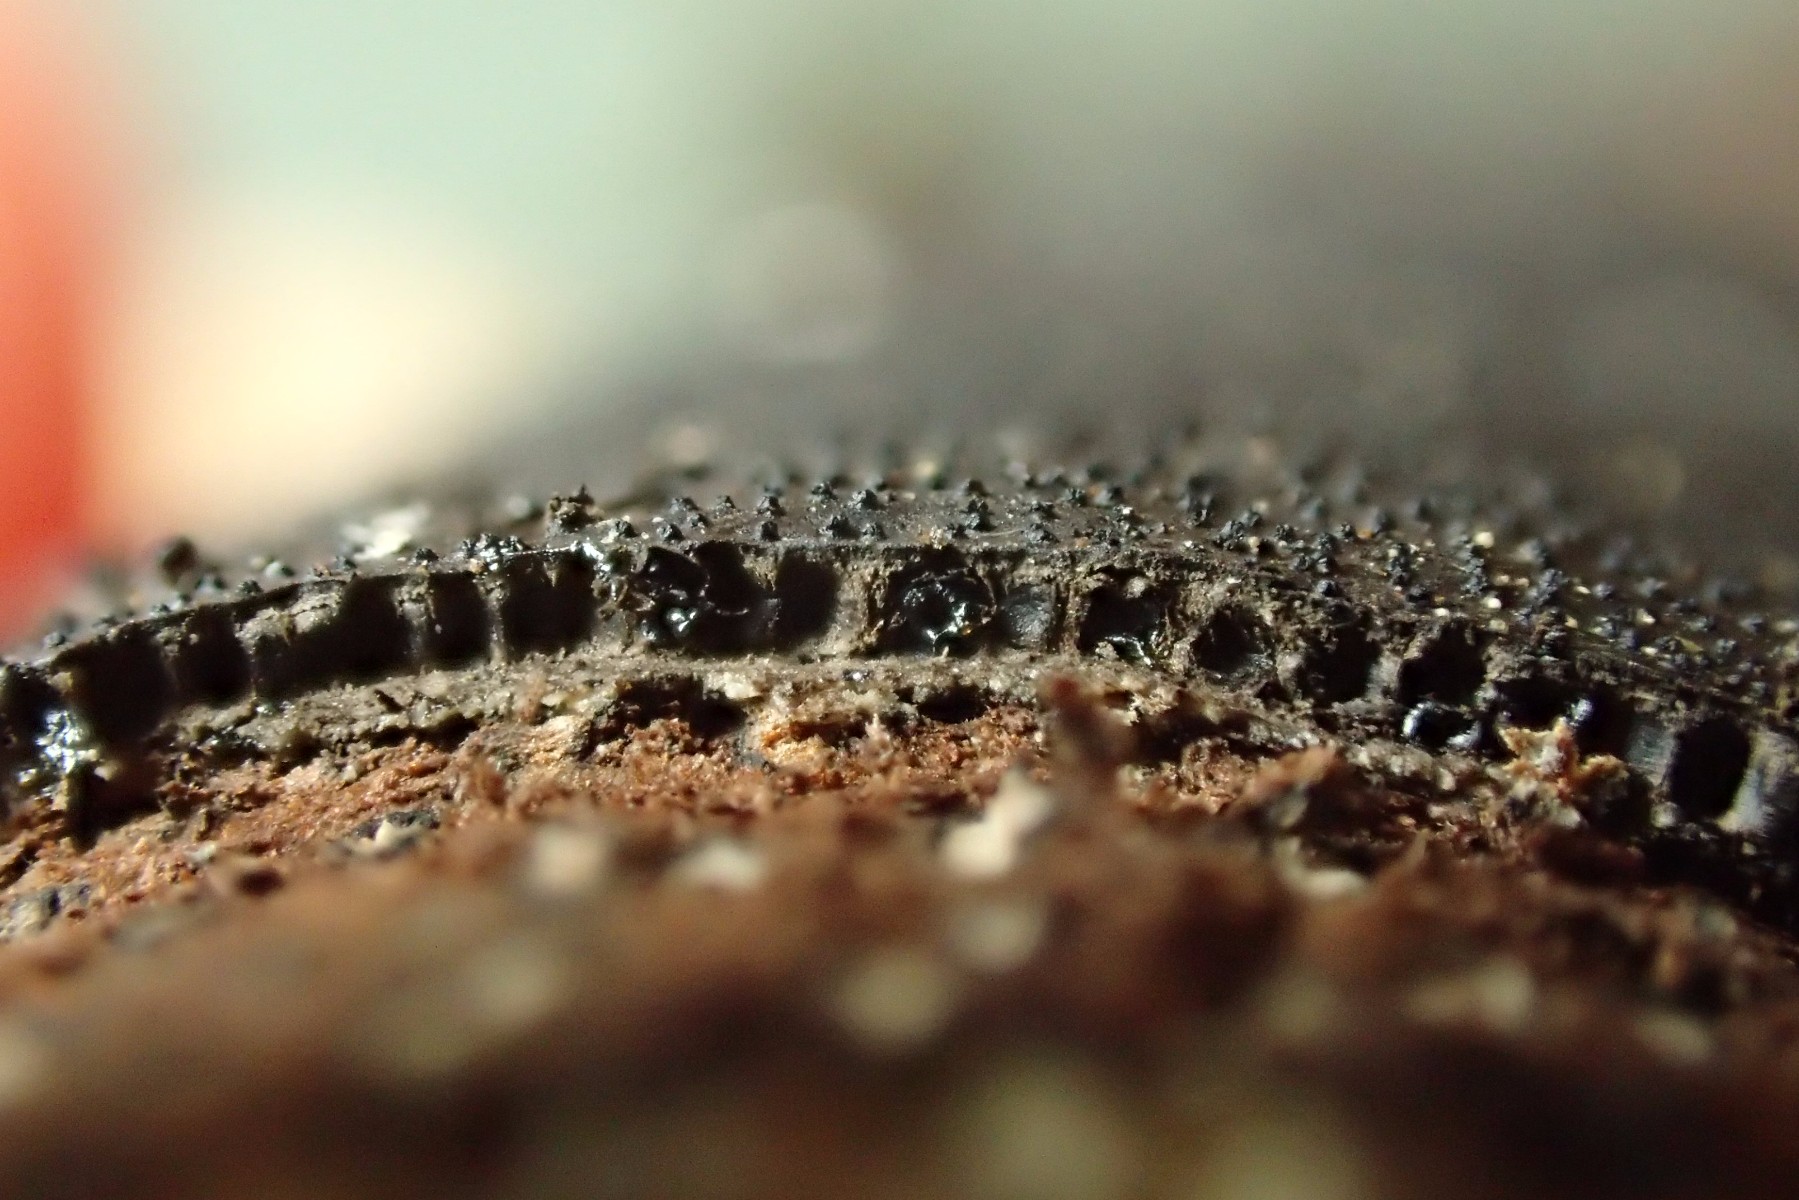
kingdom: Fungi
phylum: Ascomycota
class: Sordariomycetes
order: Xylariales
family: Diatrypaceae
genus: Diatrype
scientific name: Diatrype
